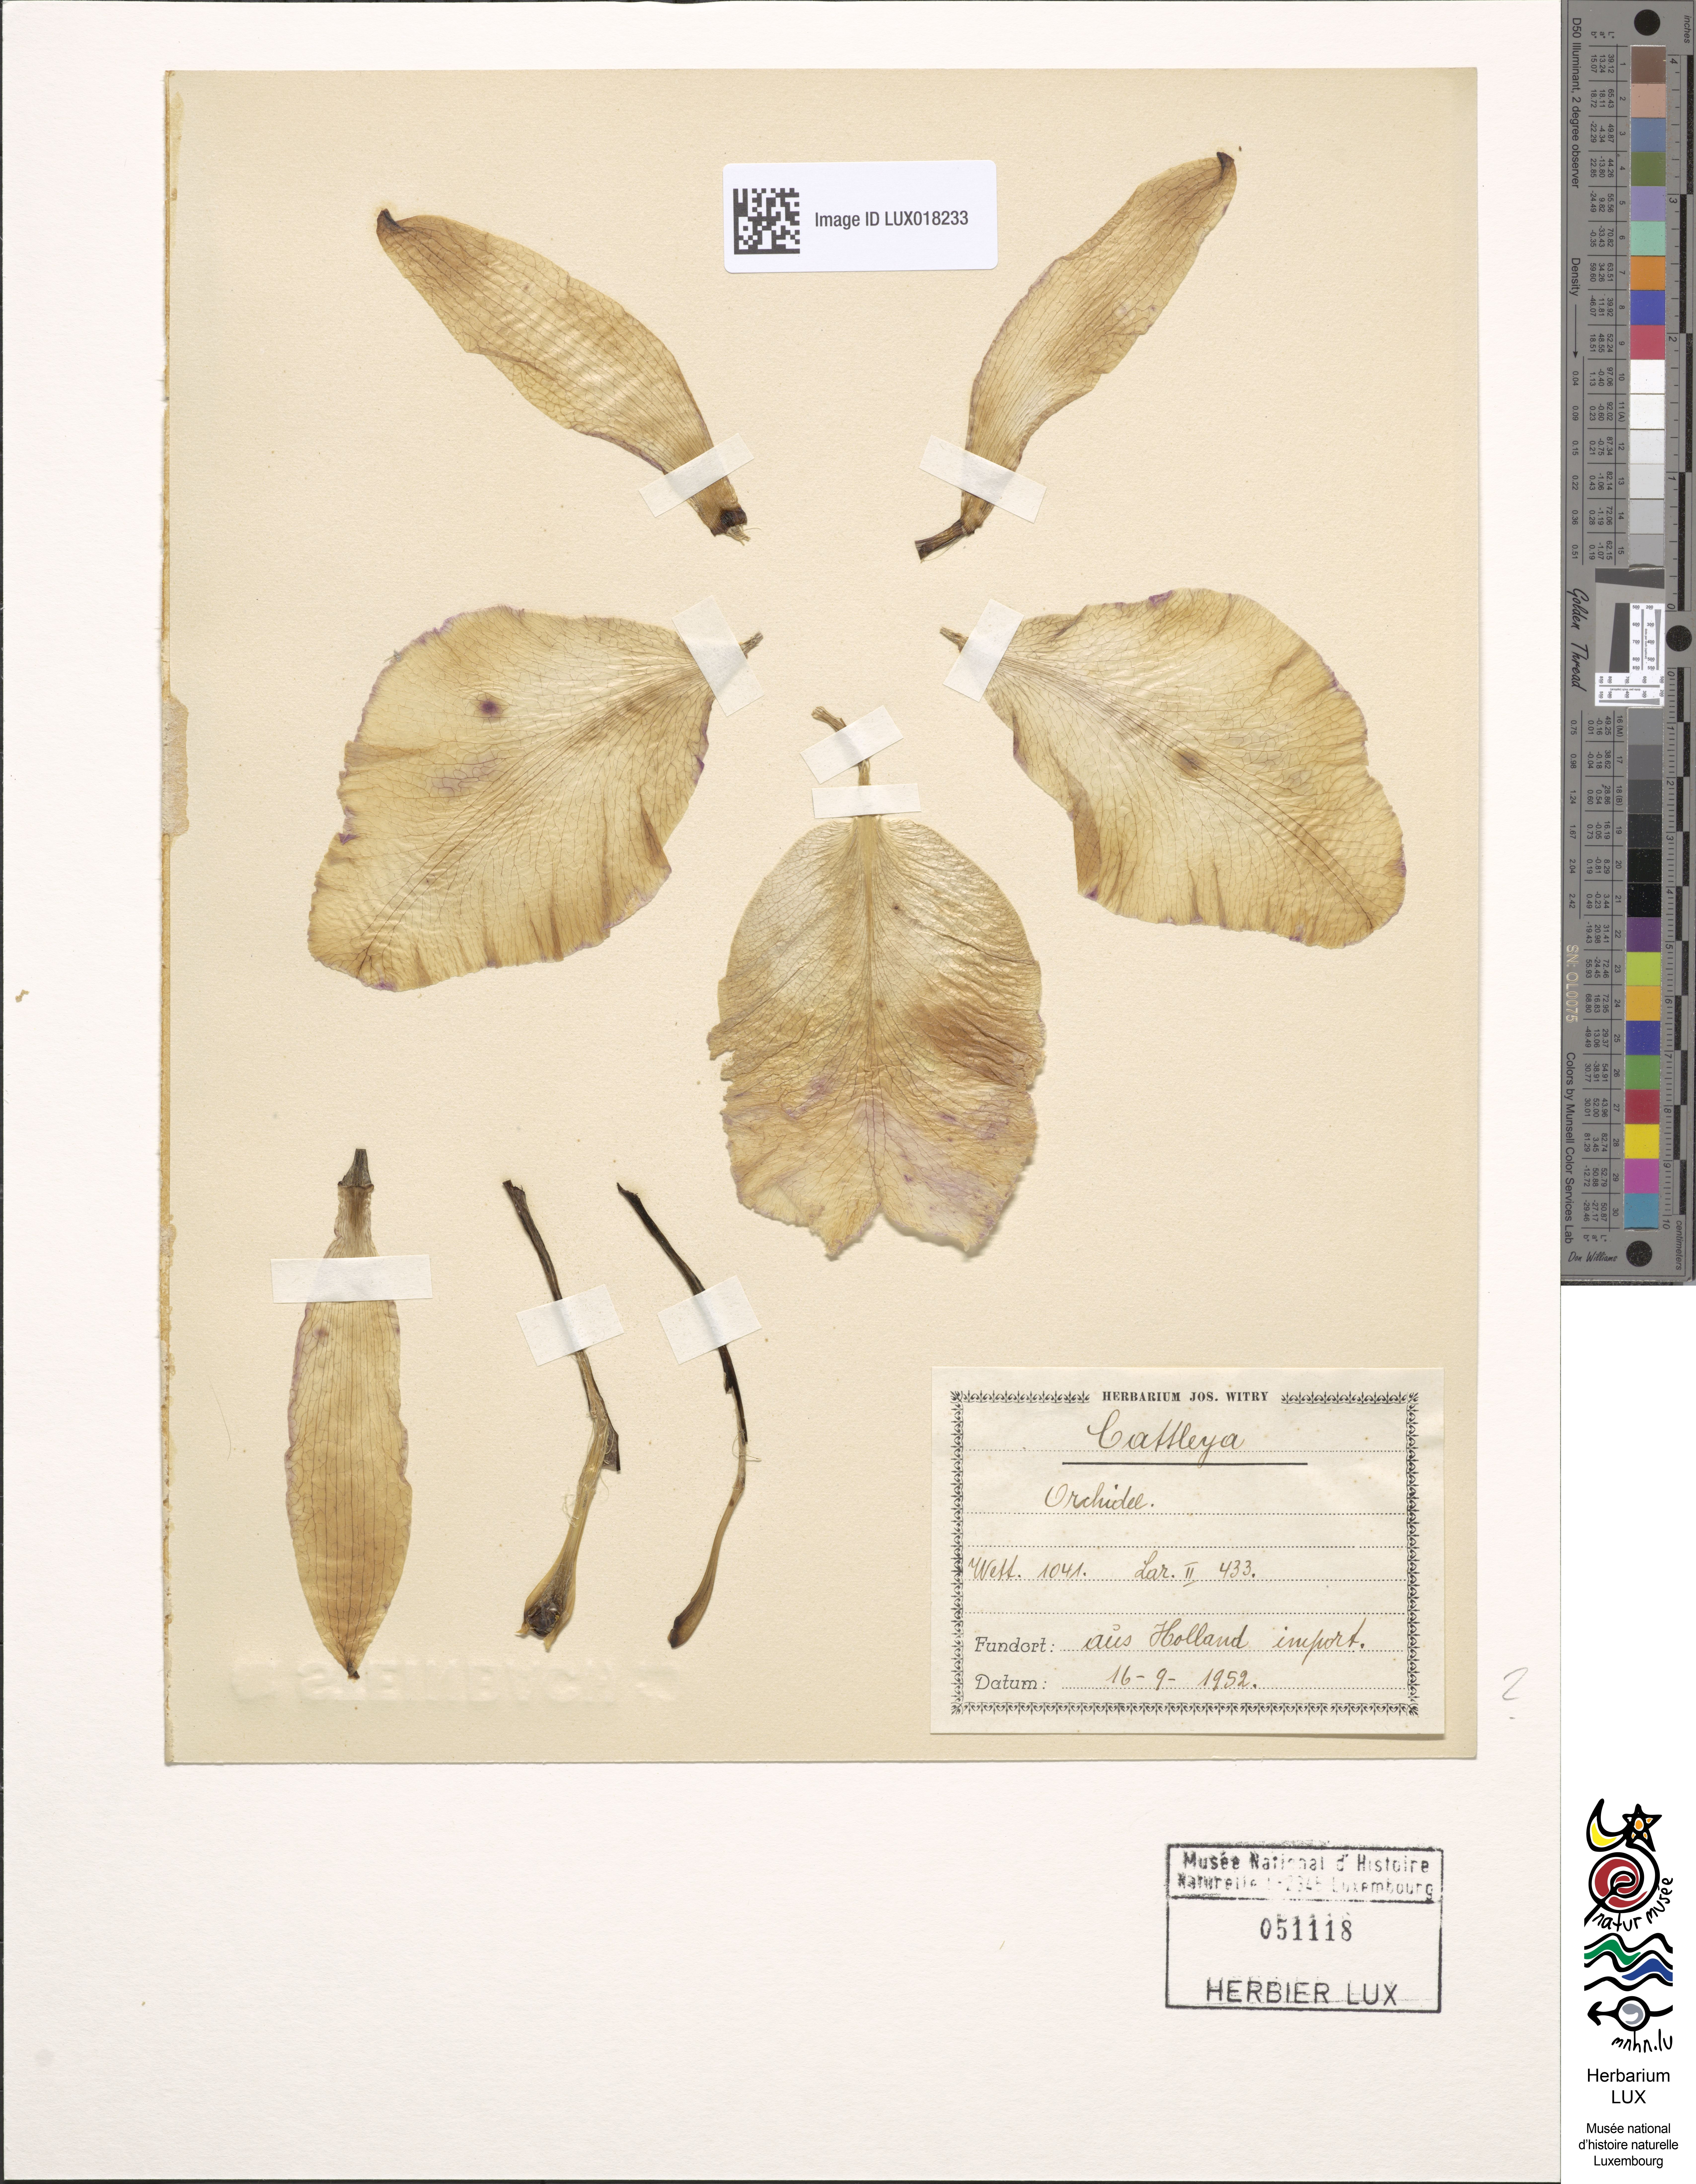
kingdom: Plantae
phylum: Tracheophyta
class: Liliopsida
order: Asparagales
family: Orchidaceae
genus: Cattleya
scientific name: Cattleya
